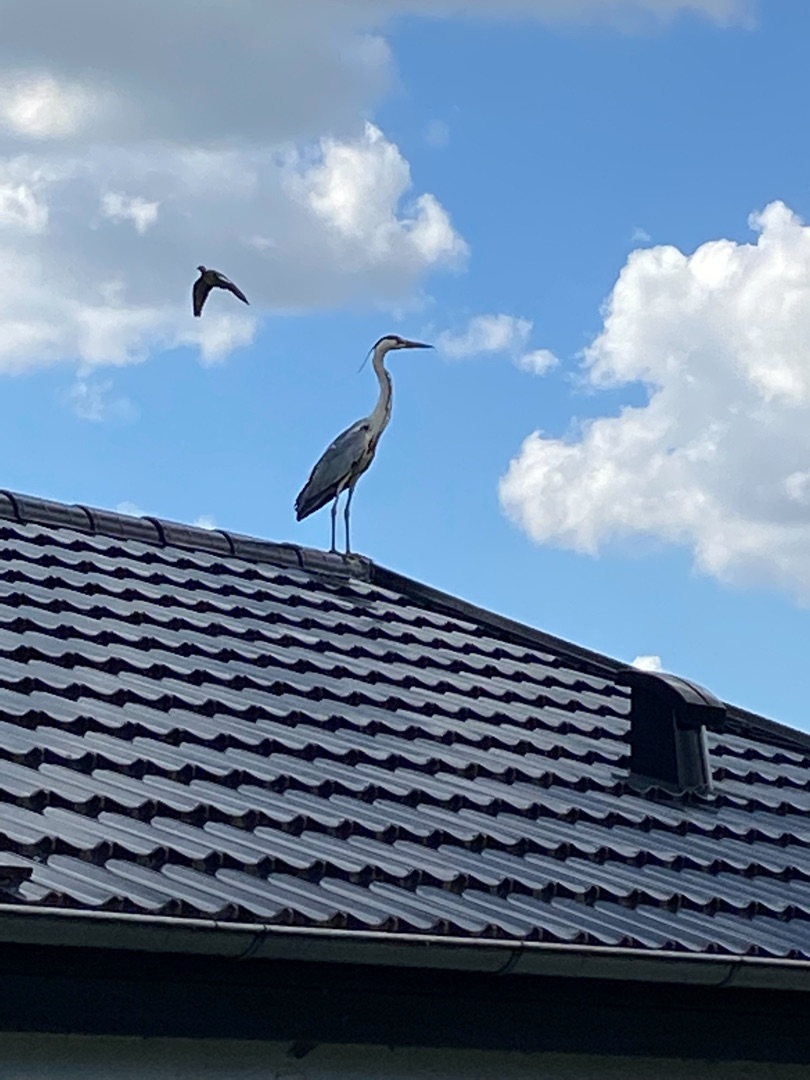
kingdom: Animalia
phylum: Chordata
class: Aves
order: Pelecaniformes
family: Ardeidae
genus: Ardea
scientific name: Ardea cinerea
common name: Fiskehejre
